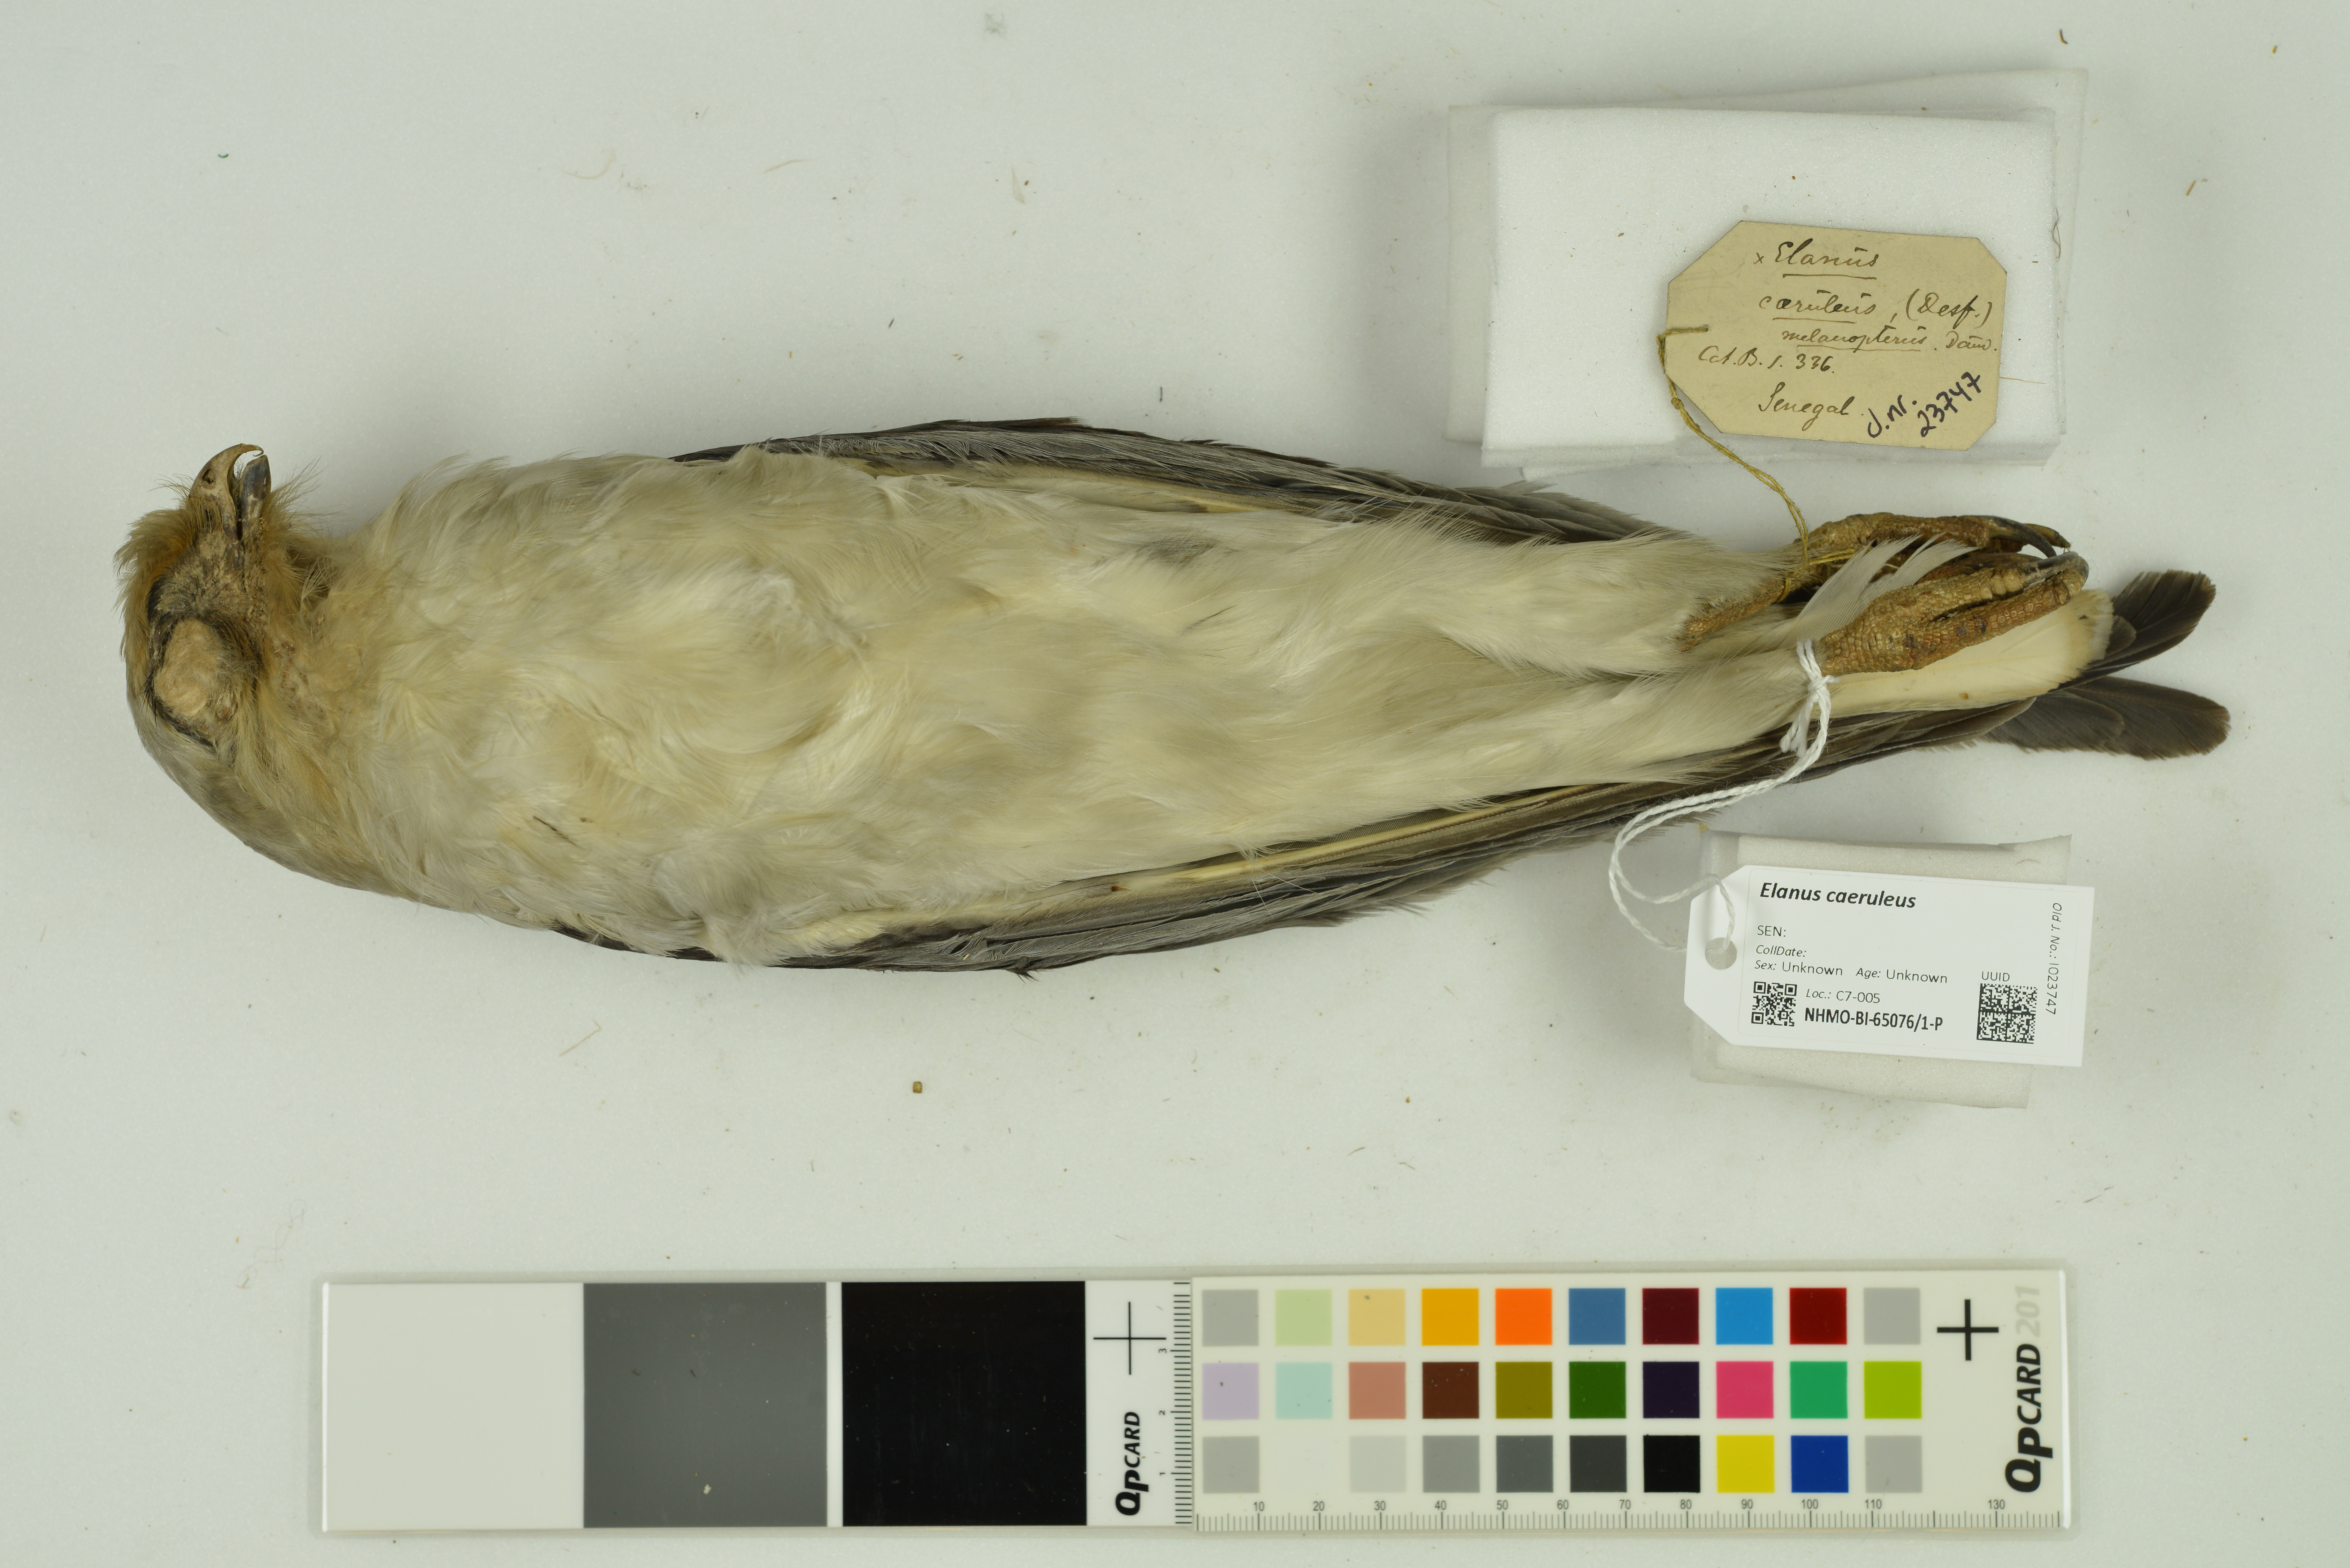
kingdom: Animalia
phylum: Chordata
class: Aves
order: Accipitriformes
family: Accipitridae
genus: Elanus
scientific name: Elanus caeruleus
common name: Black-winged kite
